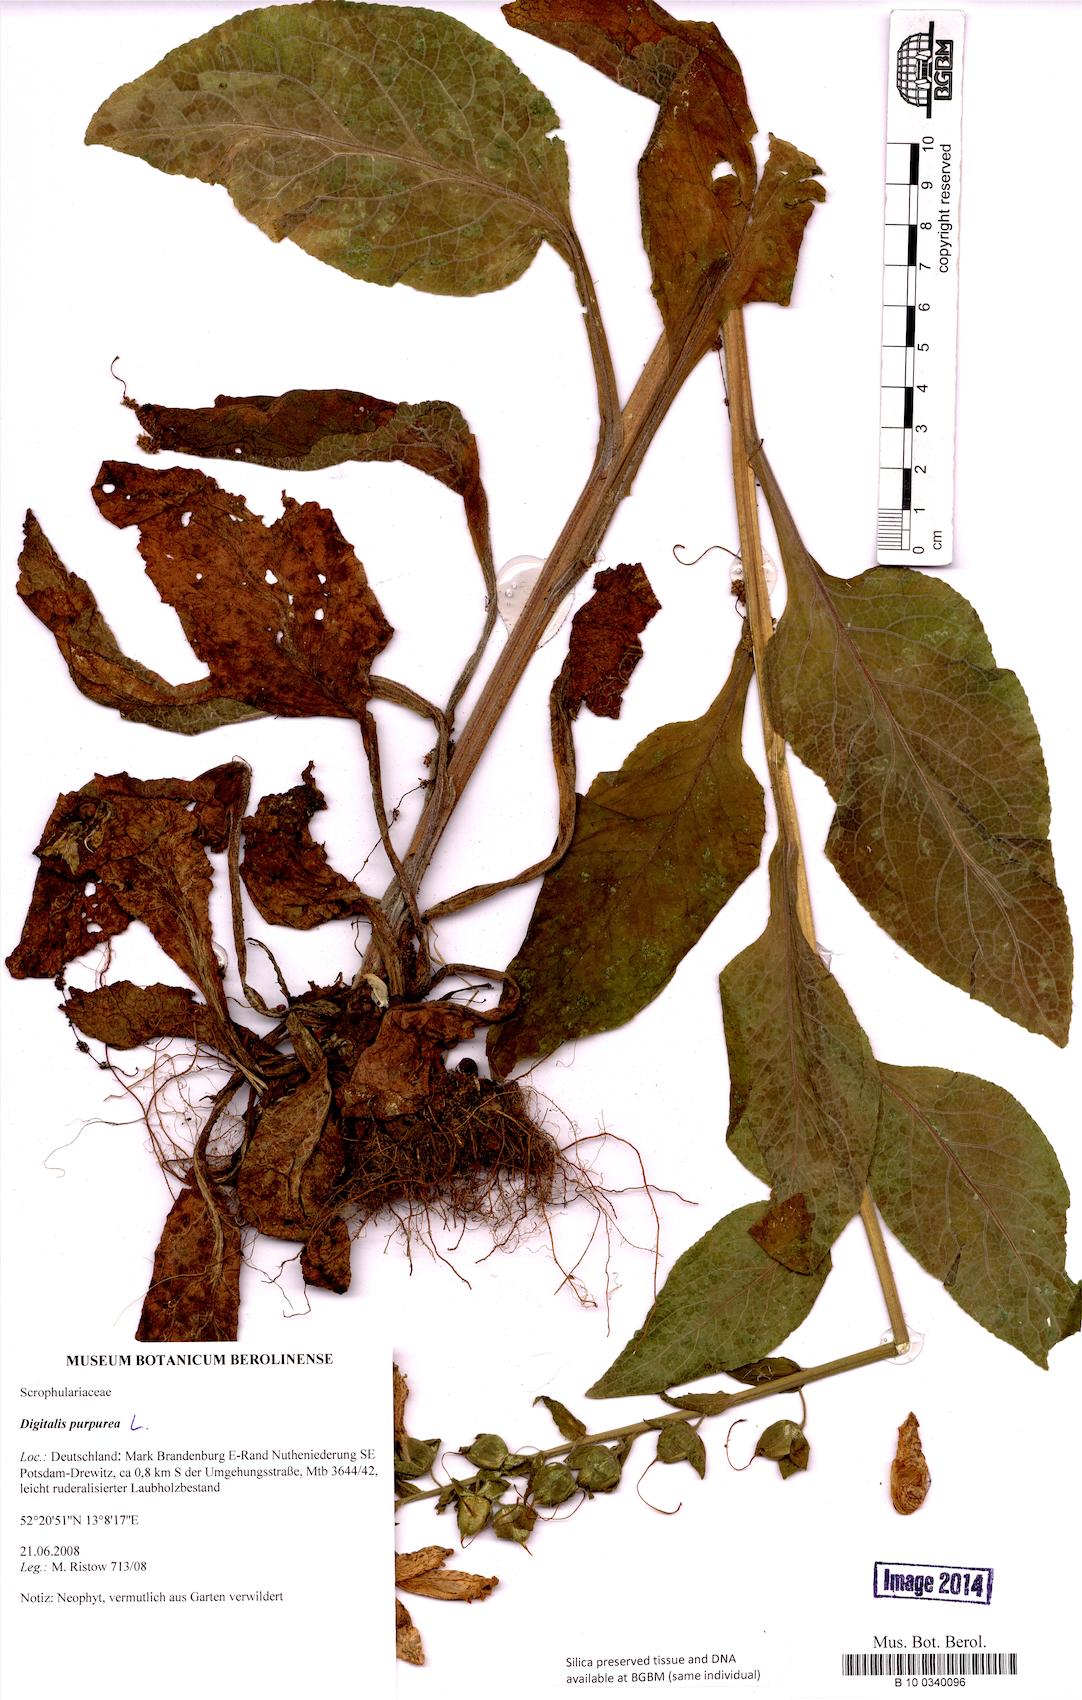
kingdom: Plantae
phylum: Tracheophyta
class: Magnoliopsida
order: Lamiales
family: Plantaginaceae
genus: Digitalis
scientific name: Digitalis purpurea
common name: Foxglove
